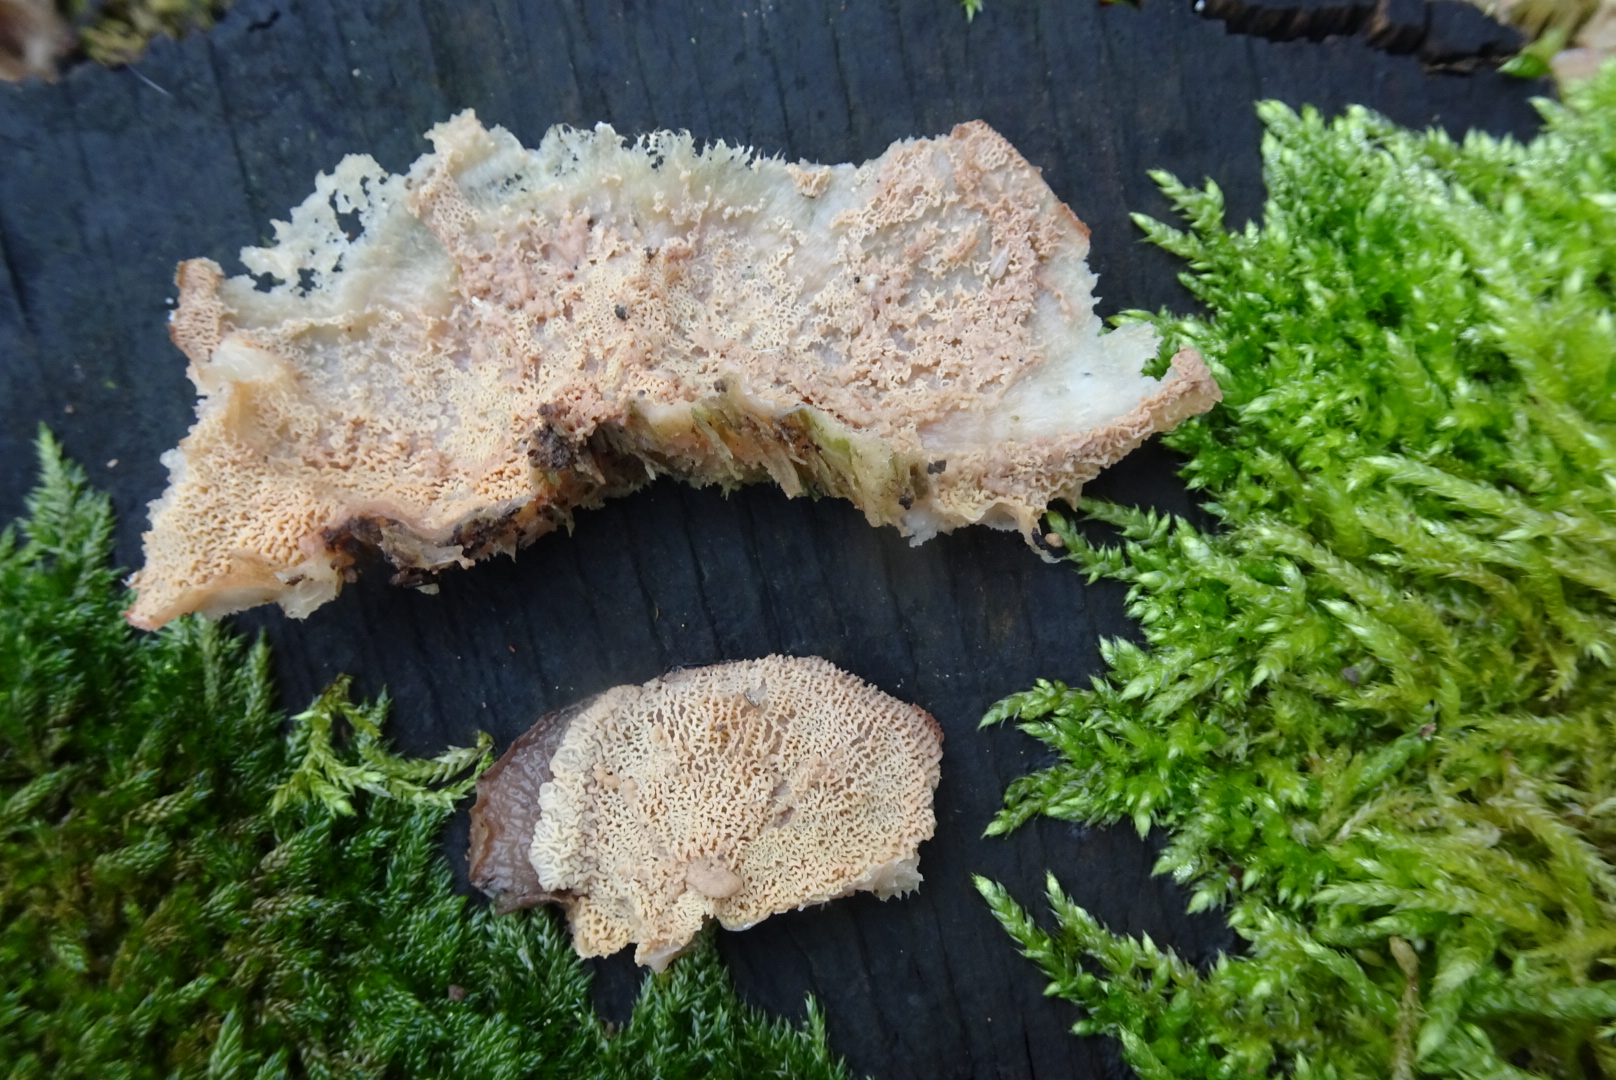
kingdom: Fungi
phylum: Basidiomycota
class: Agaricomycetes
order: Polyporales
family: Meruliaceae
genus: Phlebia
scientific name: Phlebia tremellosa
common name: bævrende åresvamp
